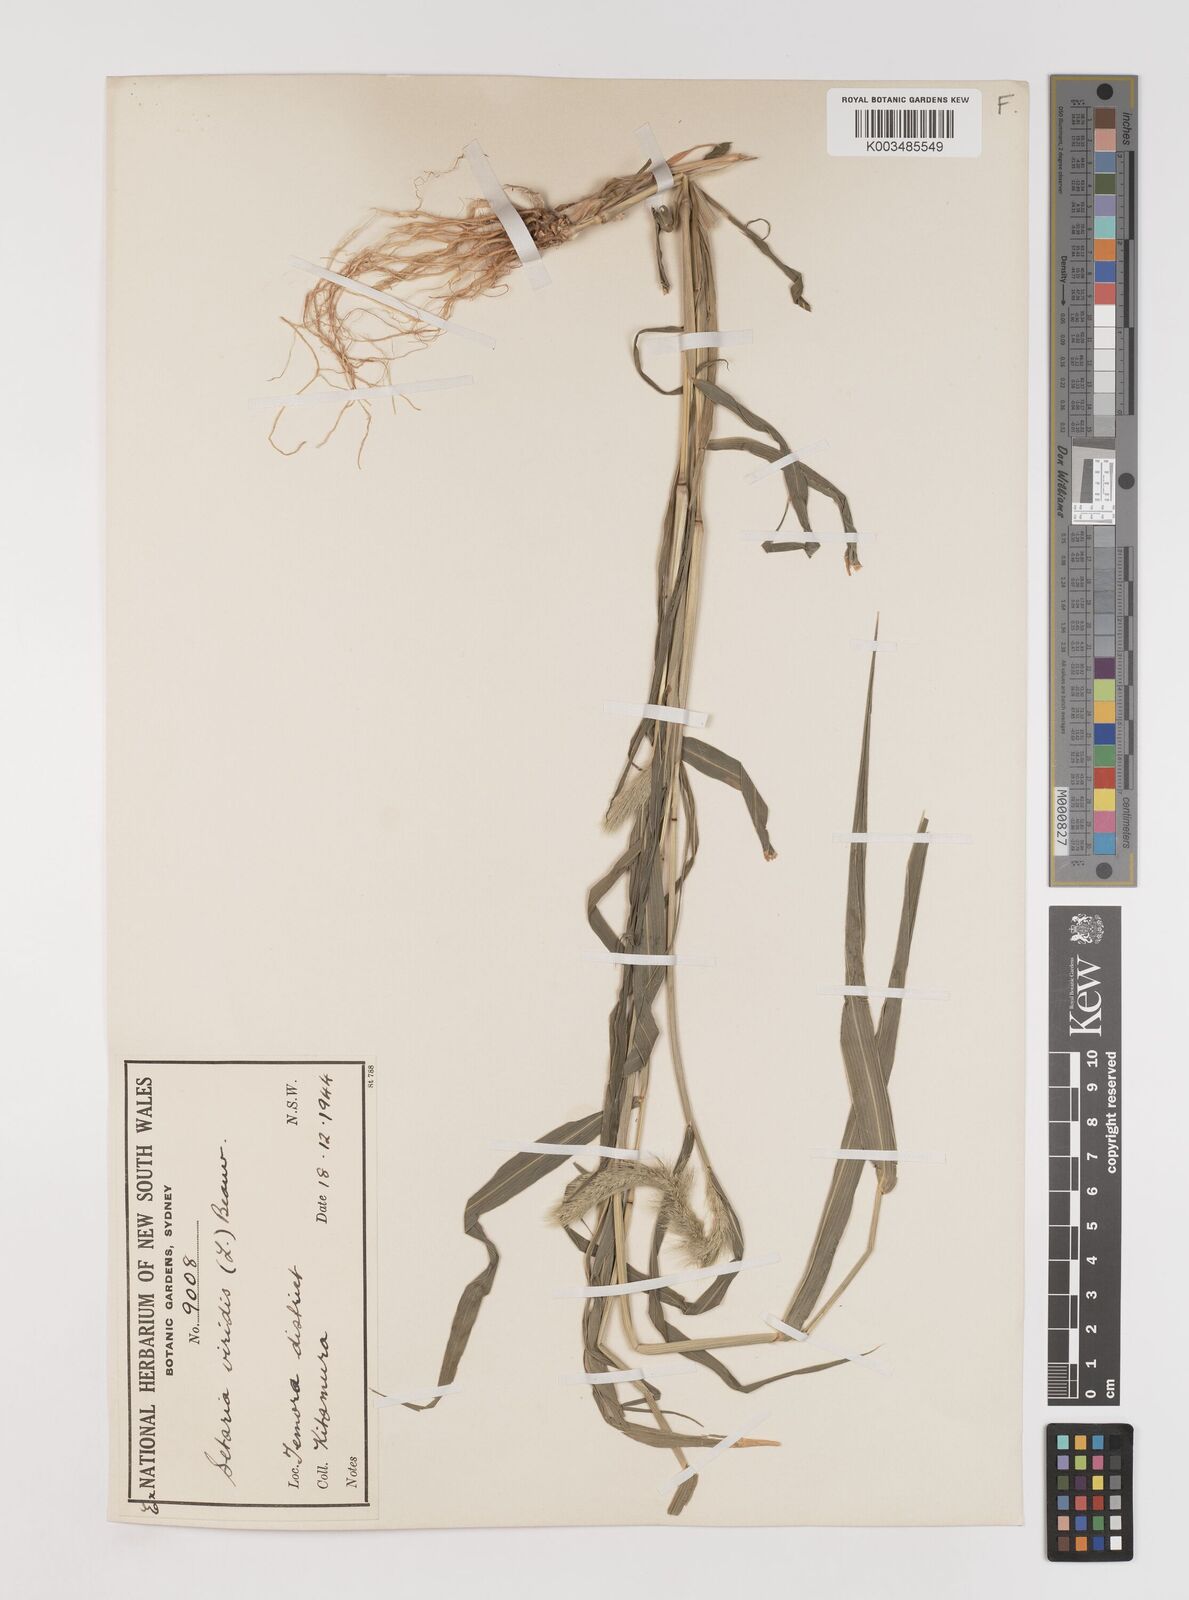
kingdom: Plantae
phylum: Tracheophyta
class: Liliopsida
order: Poales
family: Poaceae
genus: Setaria
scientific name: Setaria viridis
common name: Green bristlegrass
